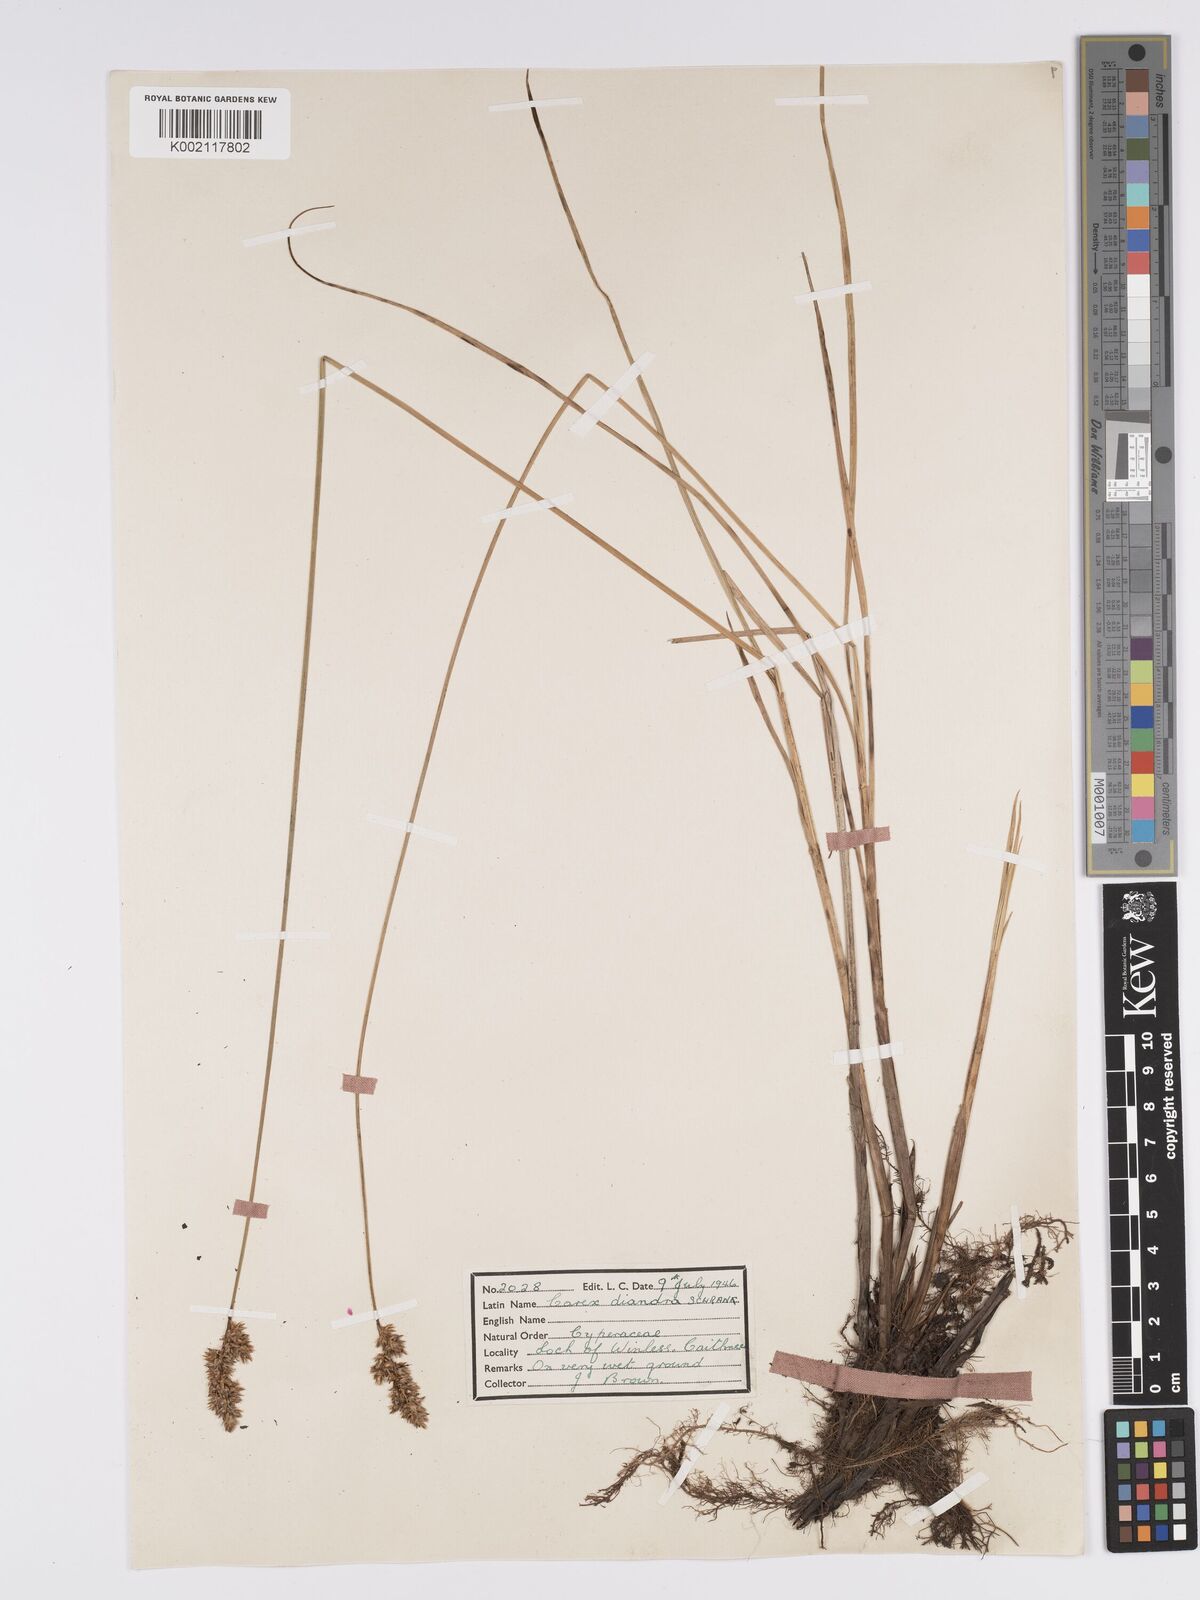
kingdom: Plantae
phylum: Tracheophyta
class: Liliopsida
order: Poales
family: Cyperaceae
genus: Carex
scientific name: Carex diandra
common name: Lesser tussock-sedge
